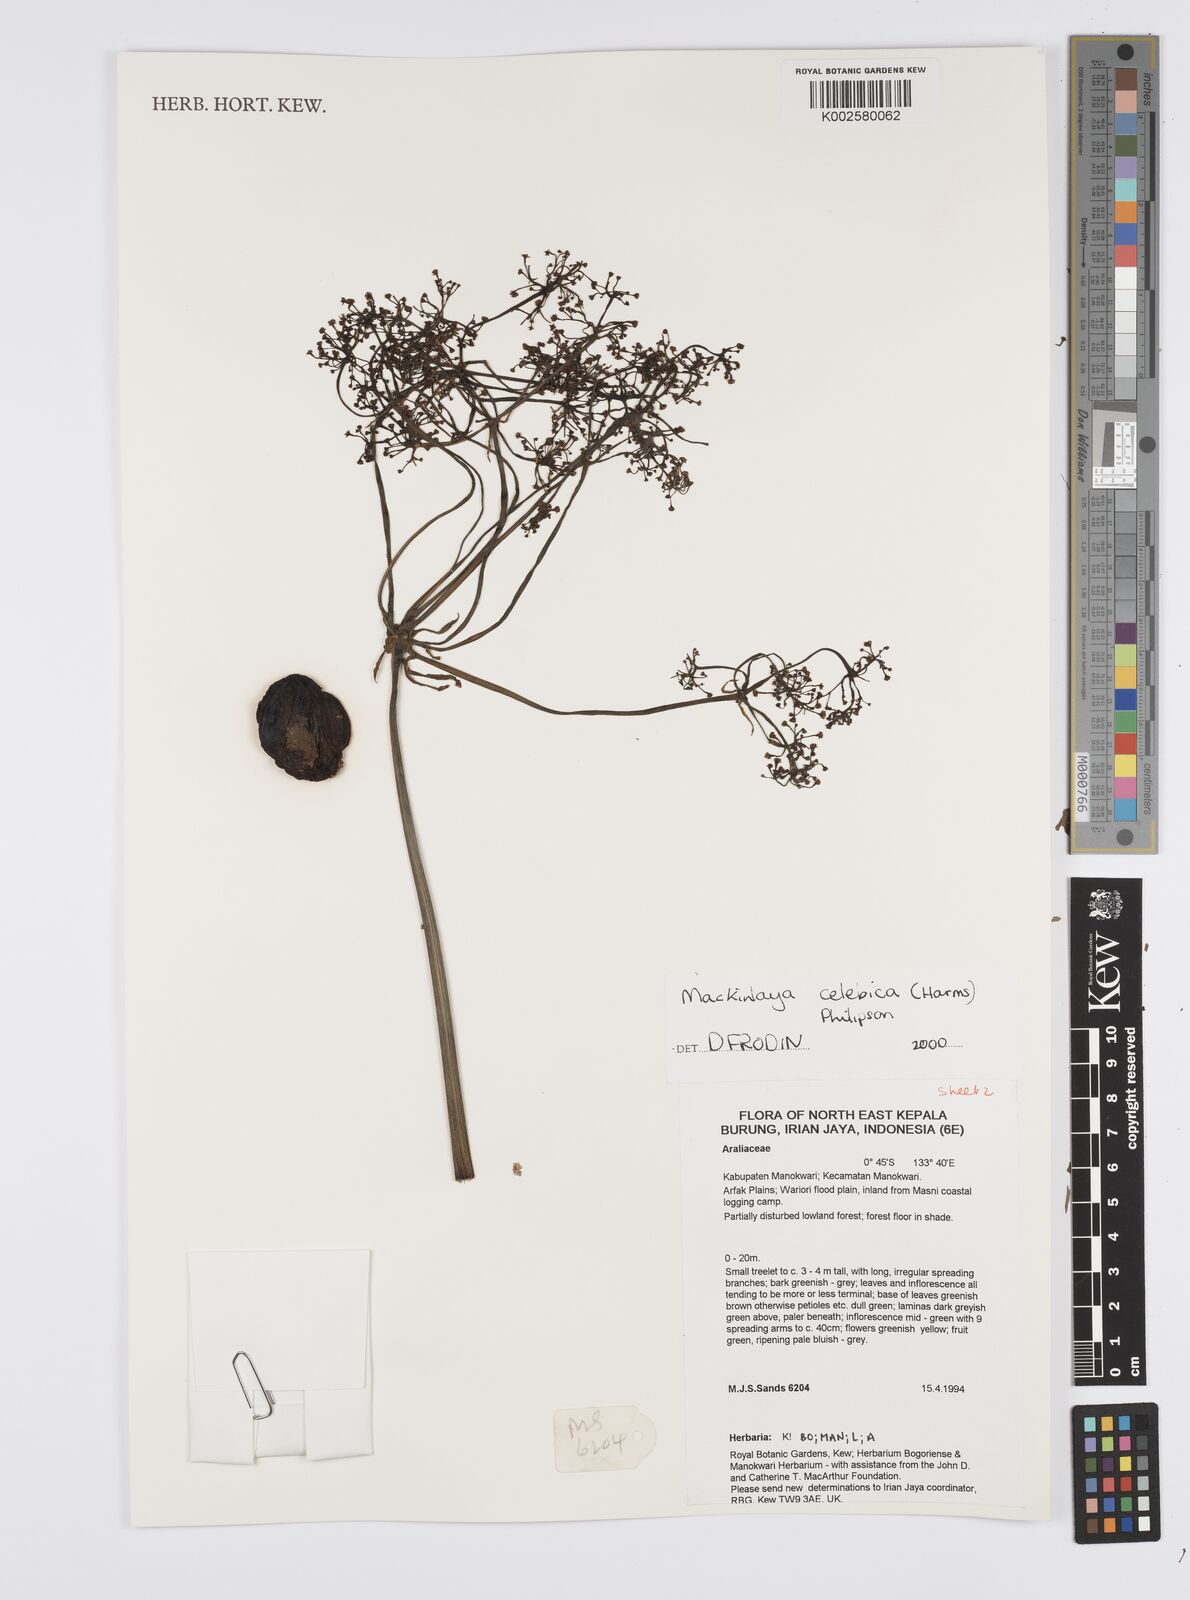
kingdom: Plantae
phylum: Tracheophyta
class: Magnoliopsida
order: Apiales
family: Apiaceae
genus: Mackinlaya
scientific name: Mackinlaya
